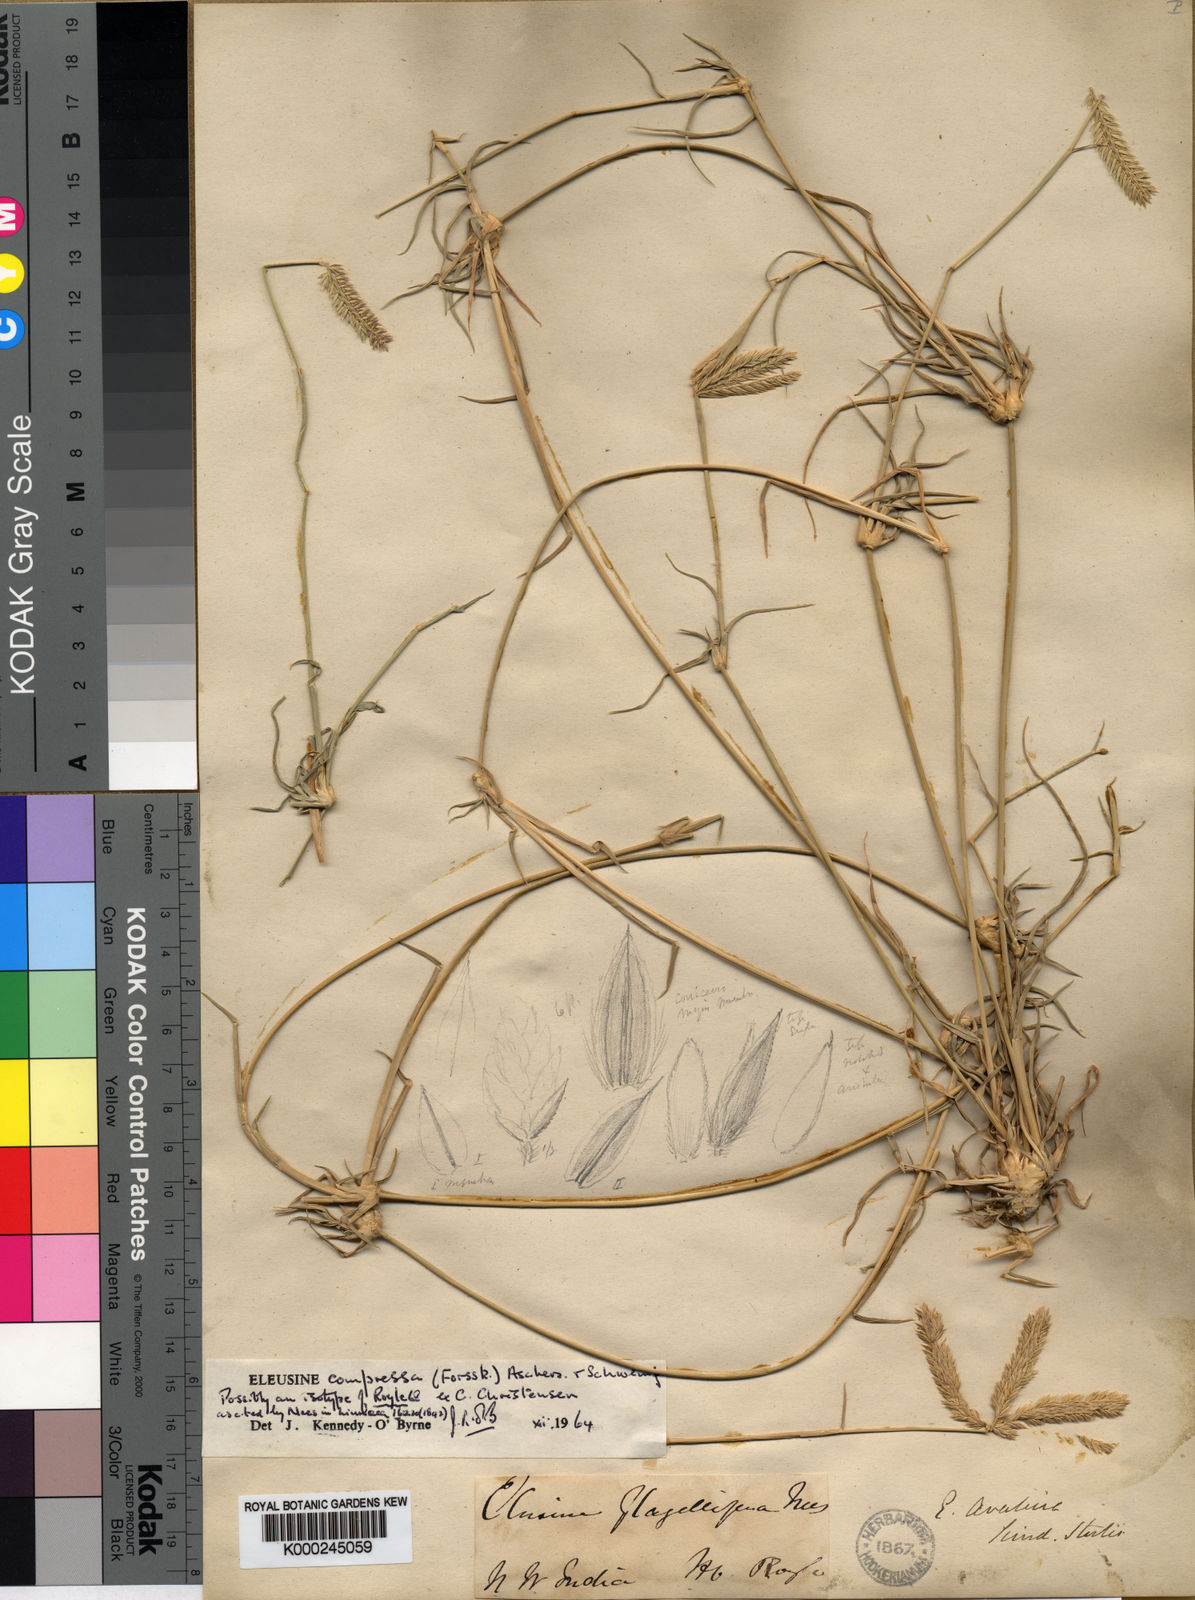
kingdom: Plantae
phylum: Tracheophyta
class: Liliopsida
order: Poales
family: Poaceae
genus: Chloris
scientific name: Chloris flagellifera
